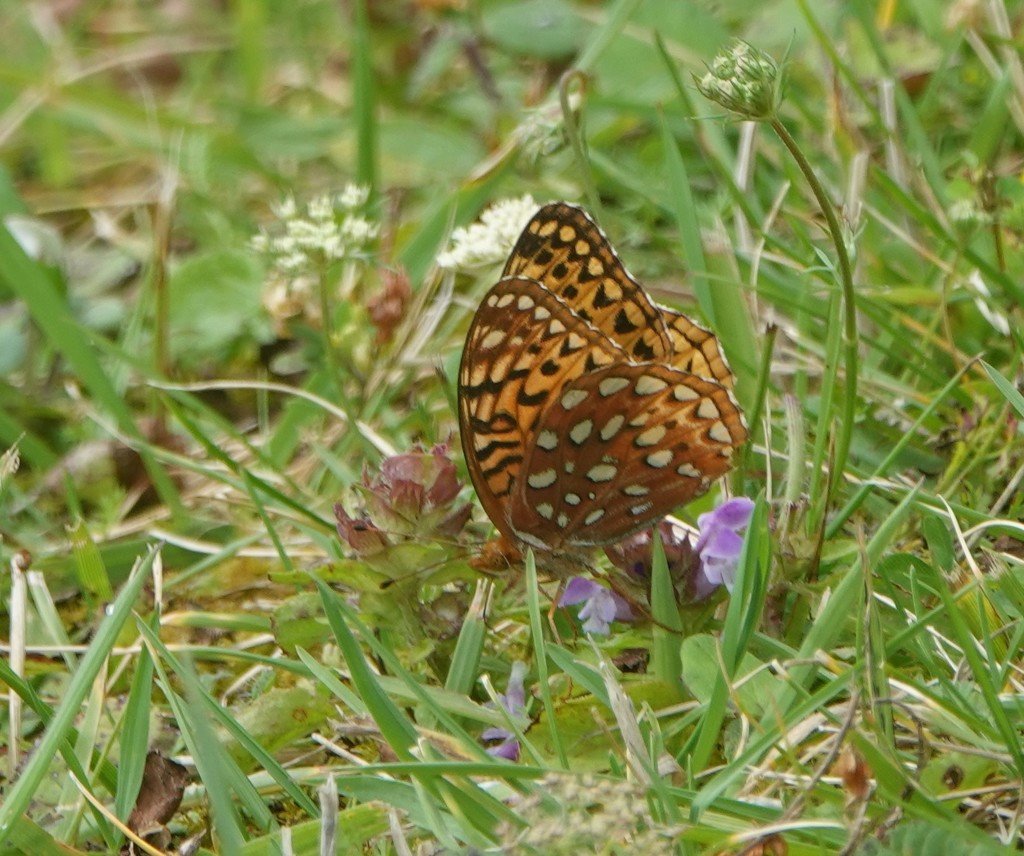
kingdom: Animalia
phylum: Arthropoda
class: Insecta
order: Lepidoptera
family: Nymphalidae
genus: Speyeria
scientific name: Speyeria aphrodite
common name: Aphrodite Fritillary
